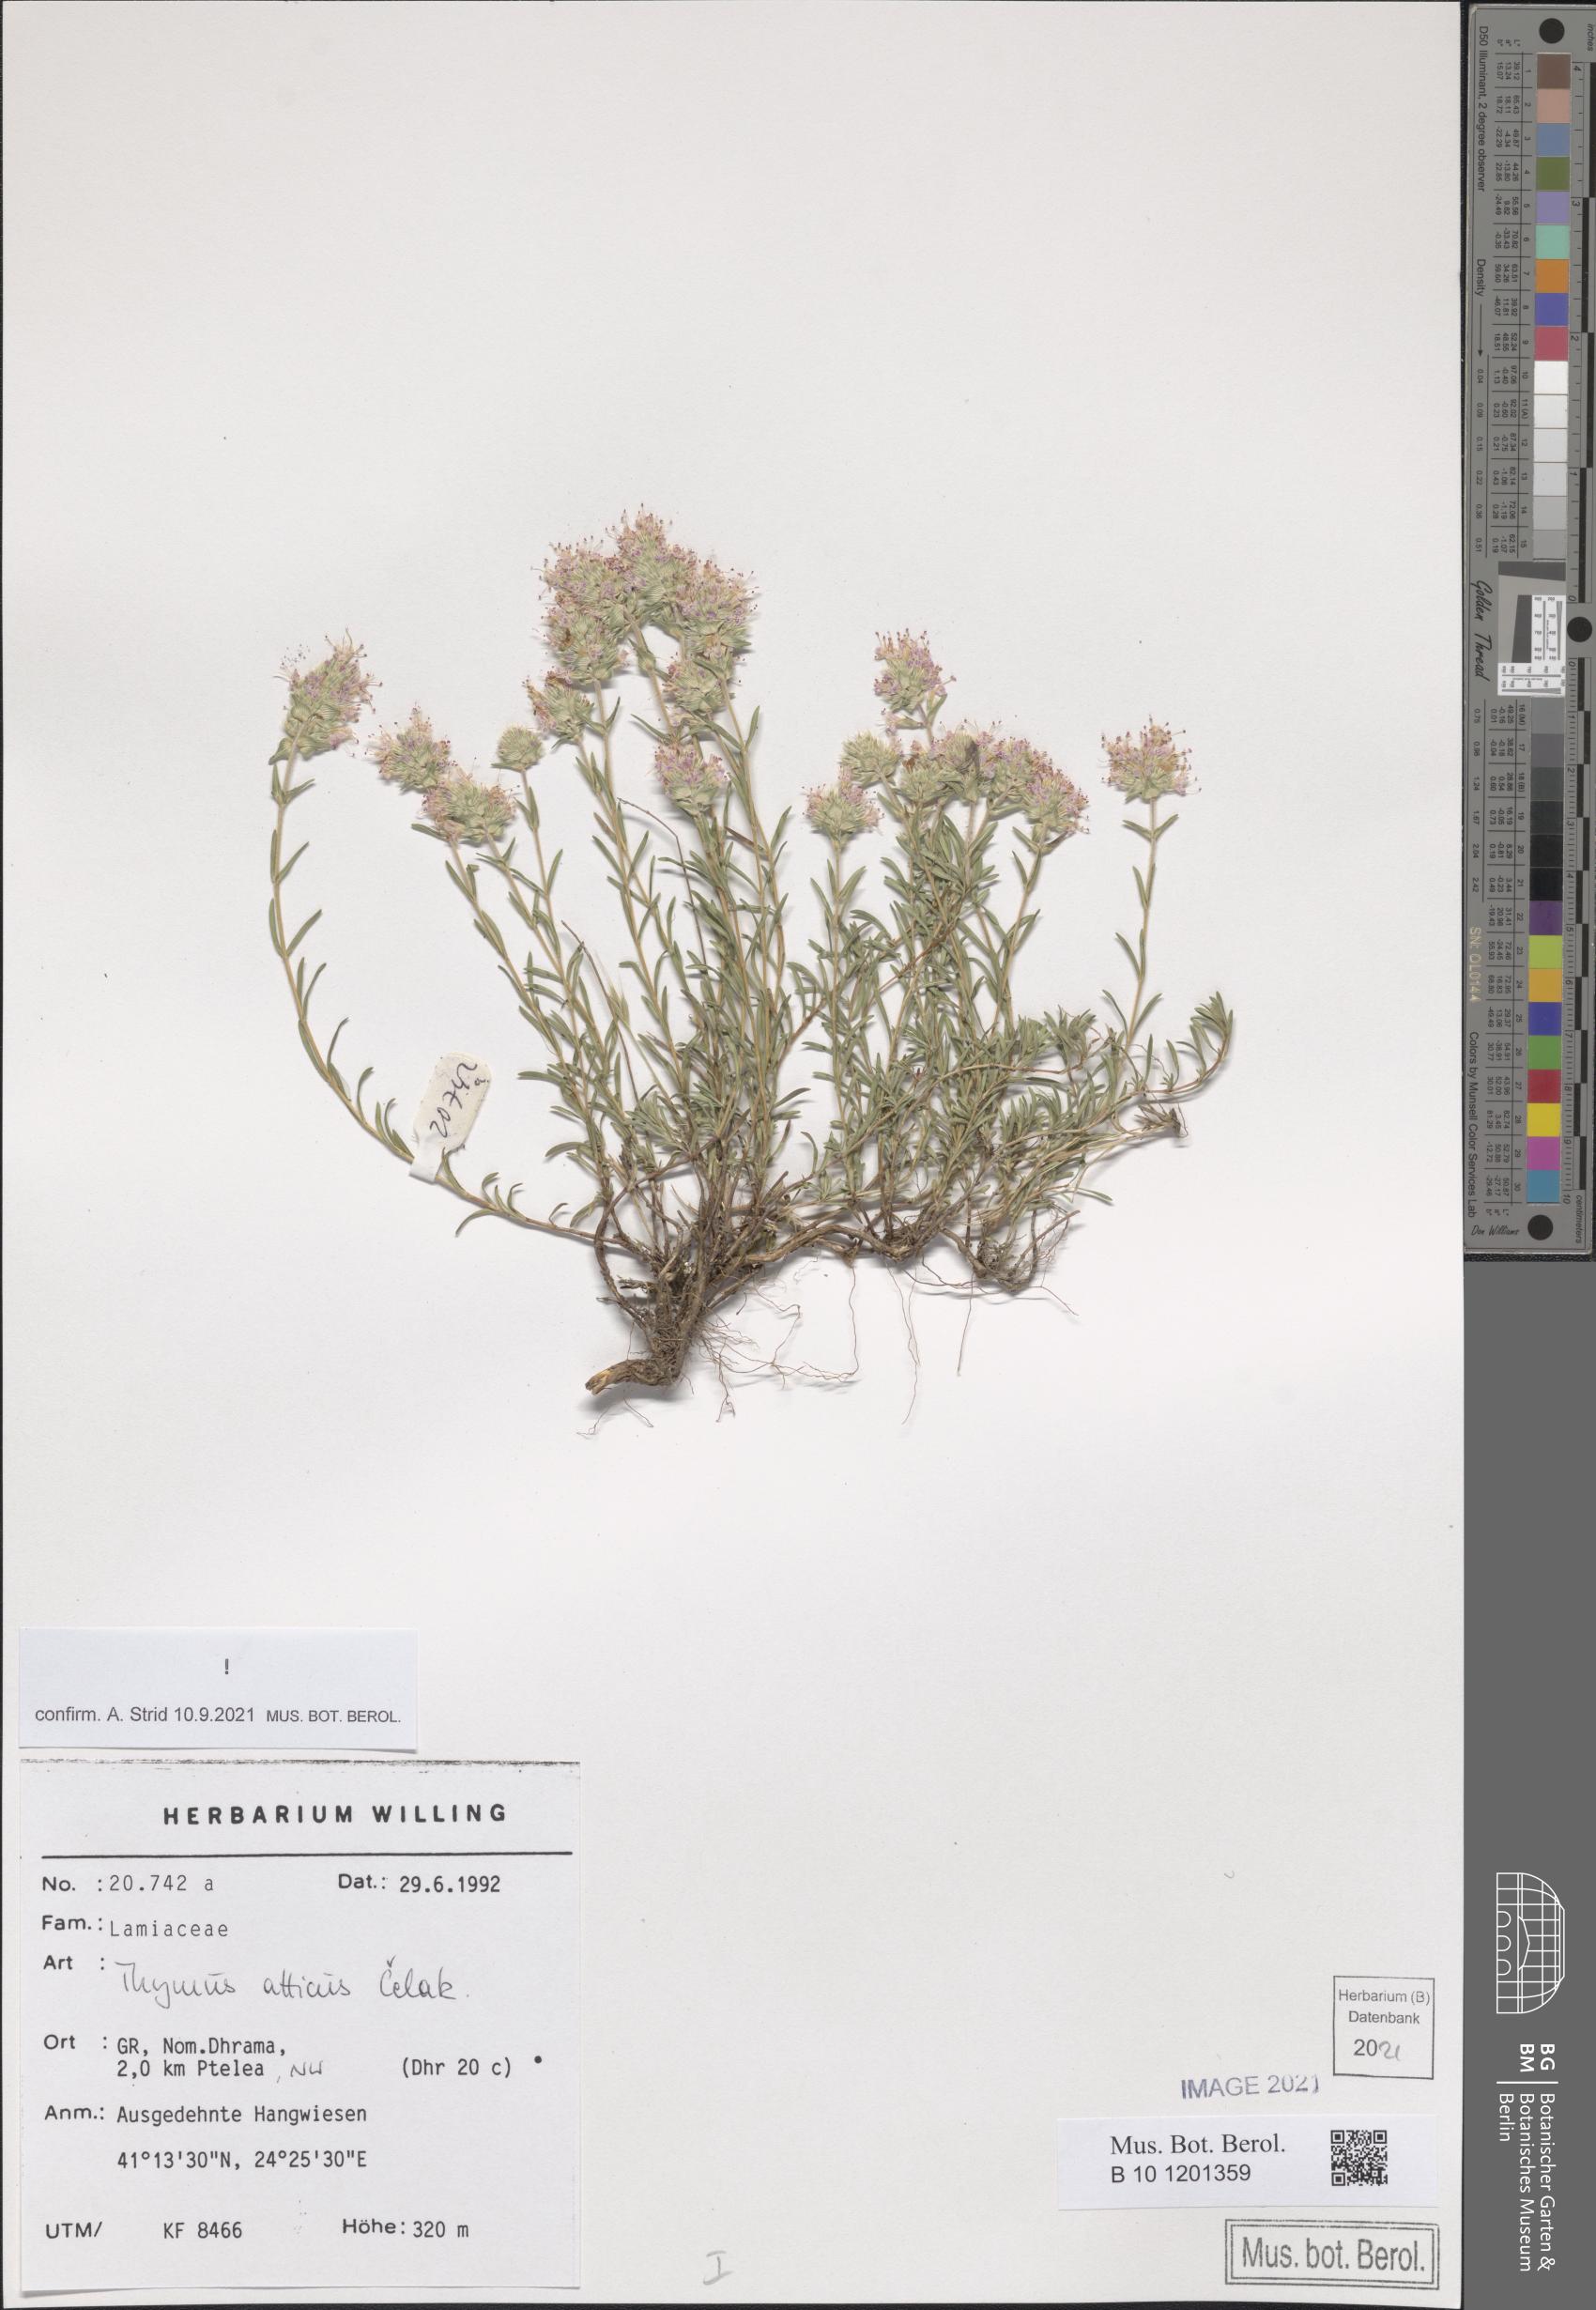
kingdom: Plantae
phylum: Tracheophyta
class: Magnoliopsida
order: Lamiales
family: Lamiaceae
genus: Thymus
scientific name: Thymus atticus
